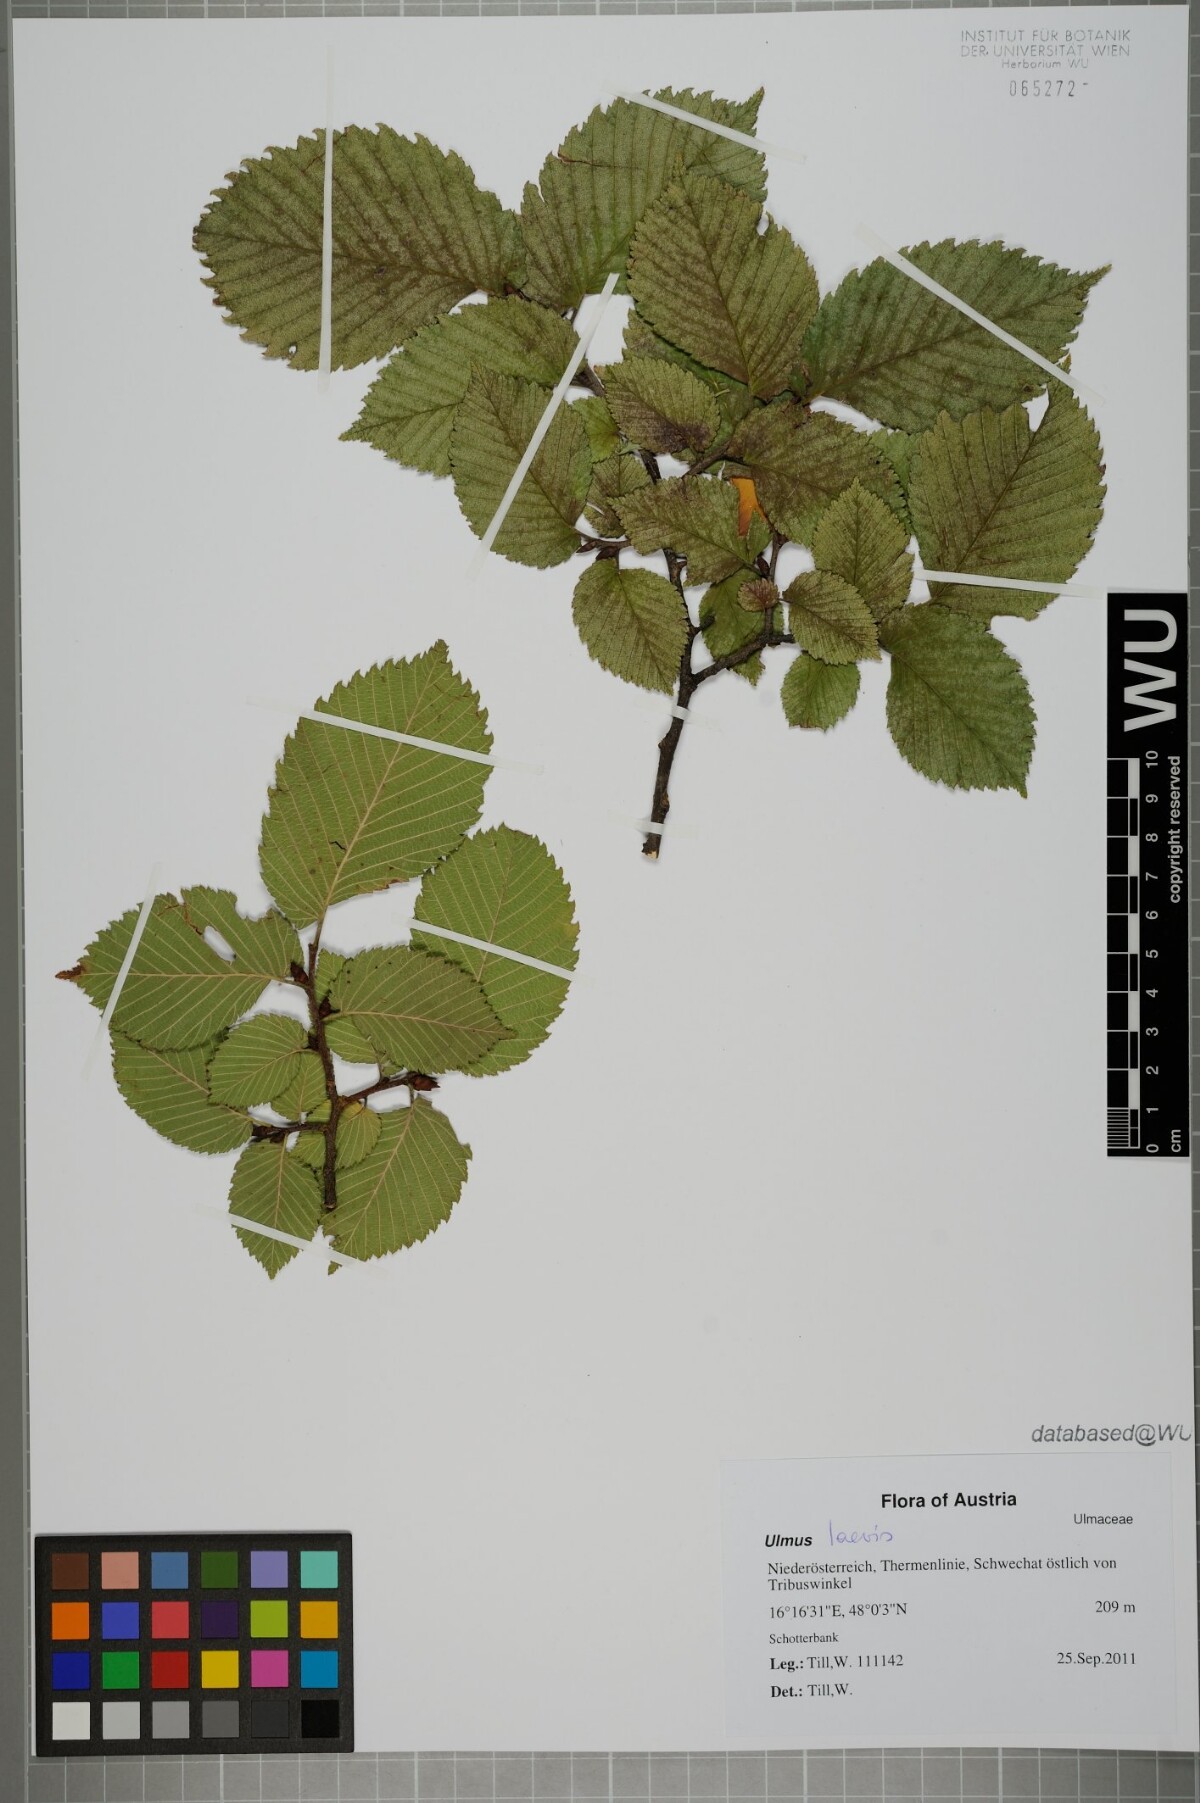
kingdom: Plantae
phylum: Tracheophyta
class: Magnoliopsida
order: Rosales
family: Ulmaceae
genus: Ulmus
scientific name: Ulmus laevis
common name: European white-elm
